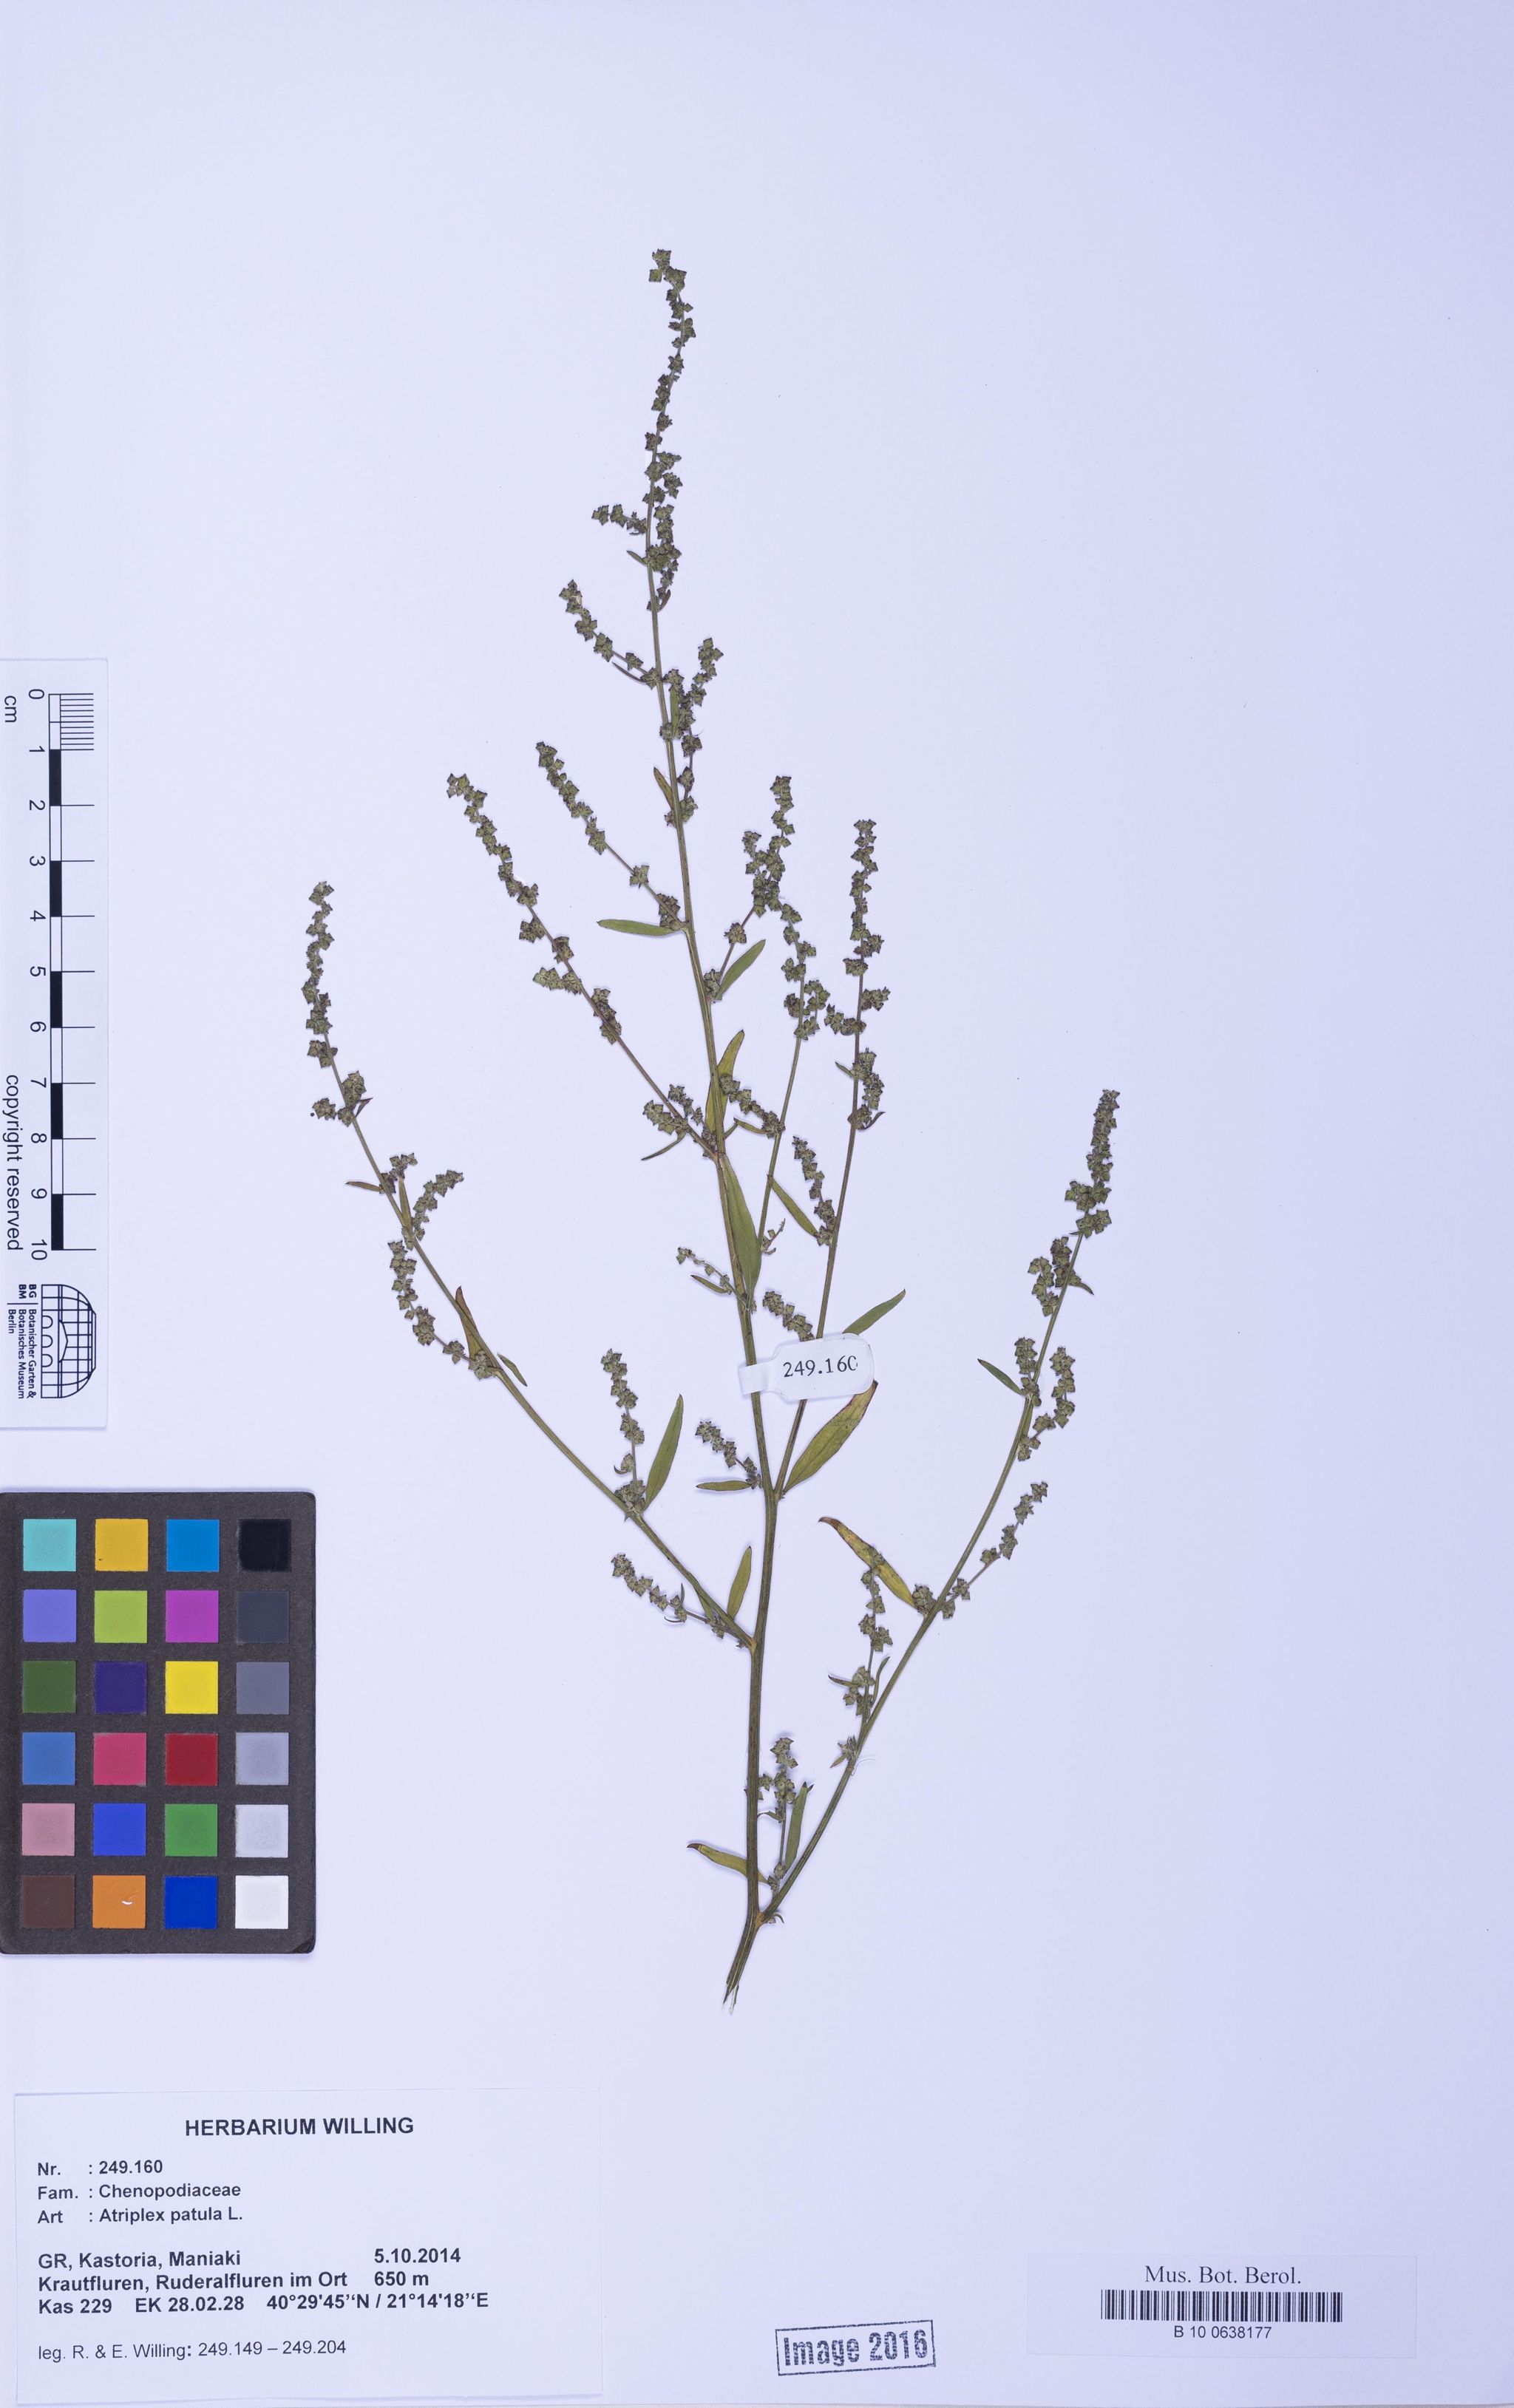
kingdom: Plantae
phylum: Tracheophyta
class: Magnoliopsida
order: Caryophyllales
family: Amaranthaceae
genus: Atriplex
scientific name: Atriplex patula
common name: Common orache
